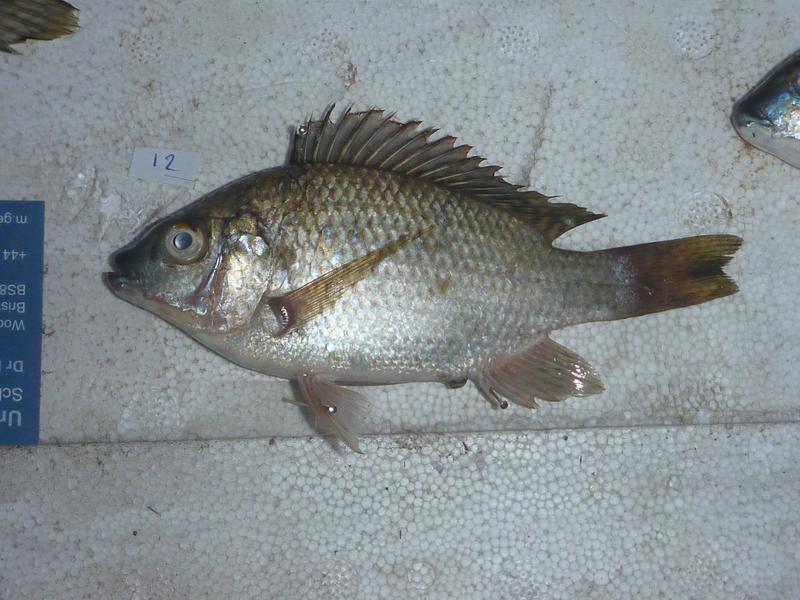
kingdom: Animalia
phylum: Chordata
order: Perciformes
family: Cichlidae
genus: Oreochromis
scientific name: Oreochromis karomo
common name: Karomo
